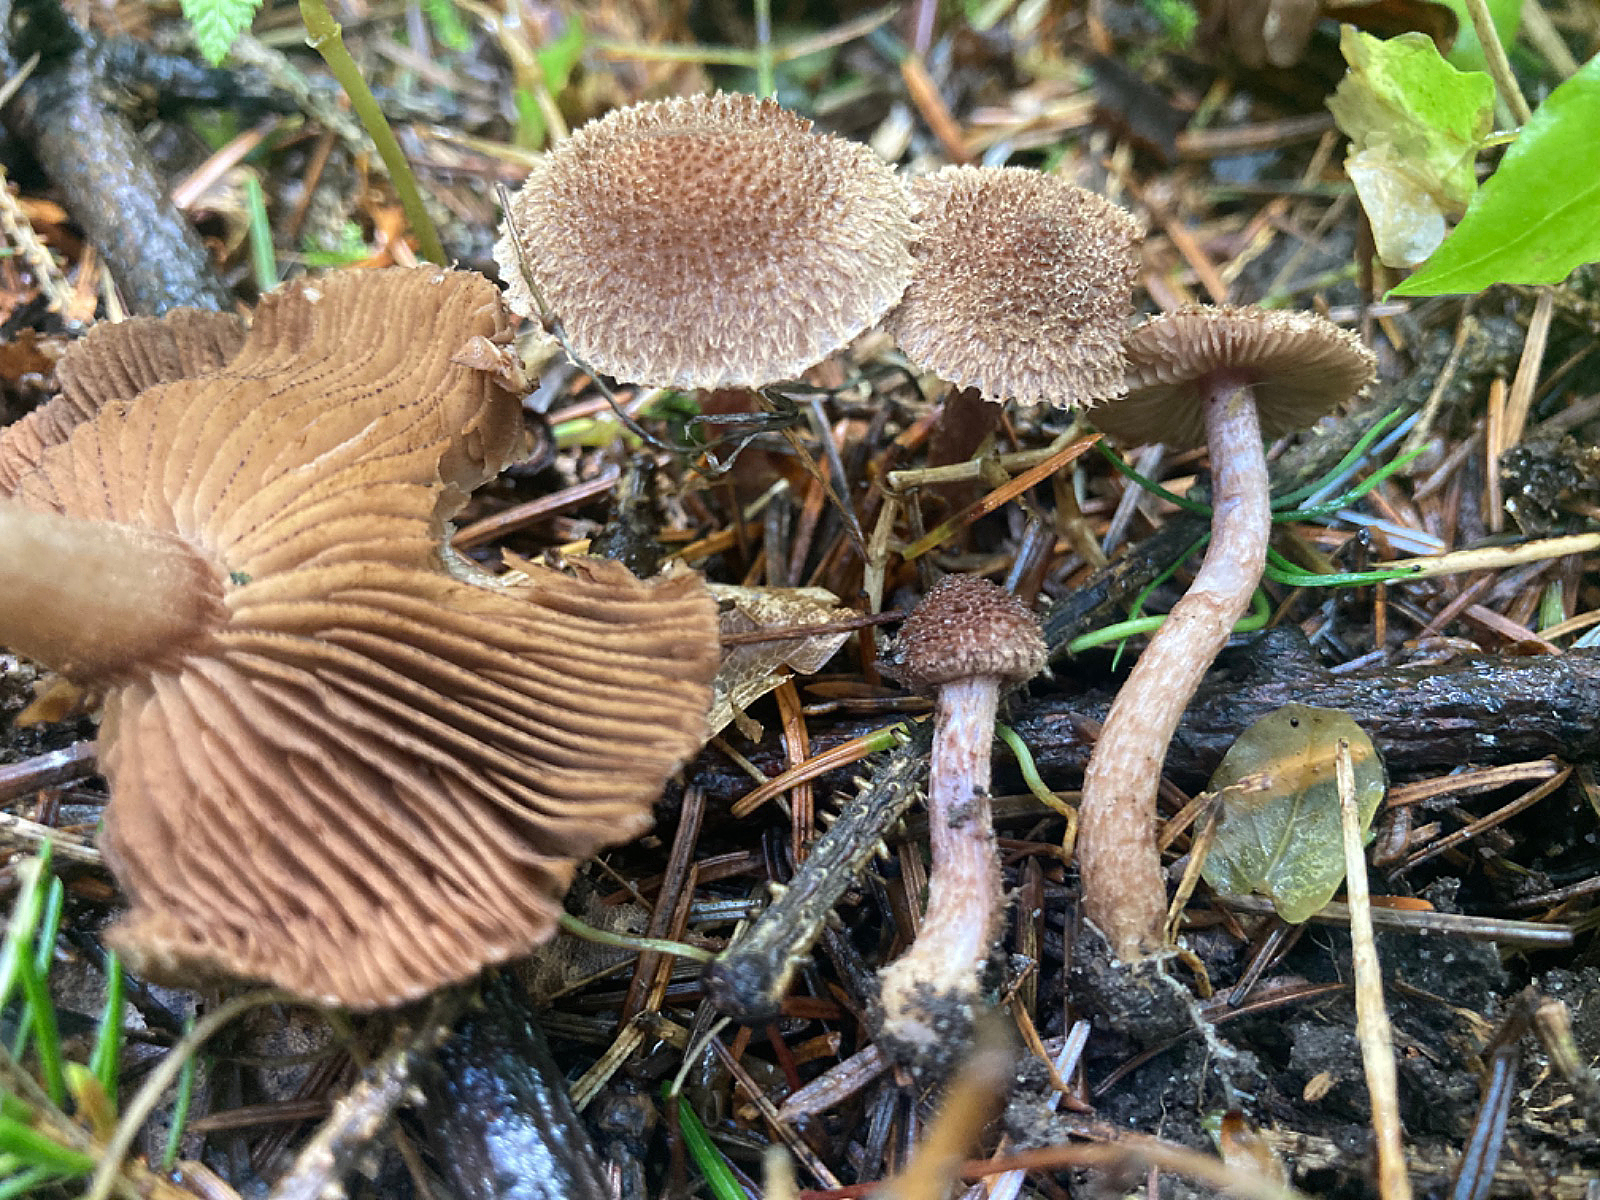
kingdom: Fungi
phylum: Basidiomycota
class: Agaricomycetes
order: Agaricales
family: Inocybaceae
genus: Inocybe
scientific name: Inocybe cincinnata
